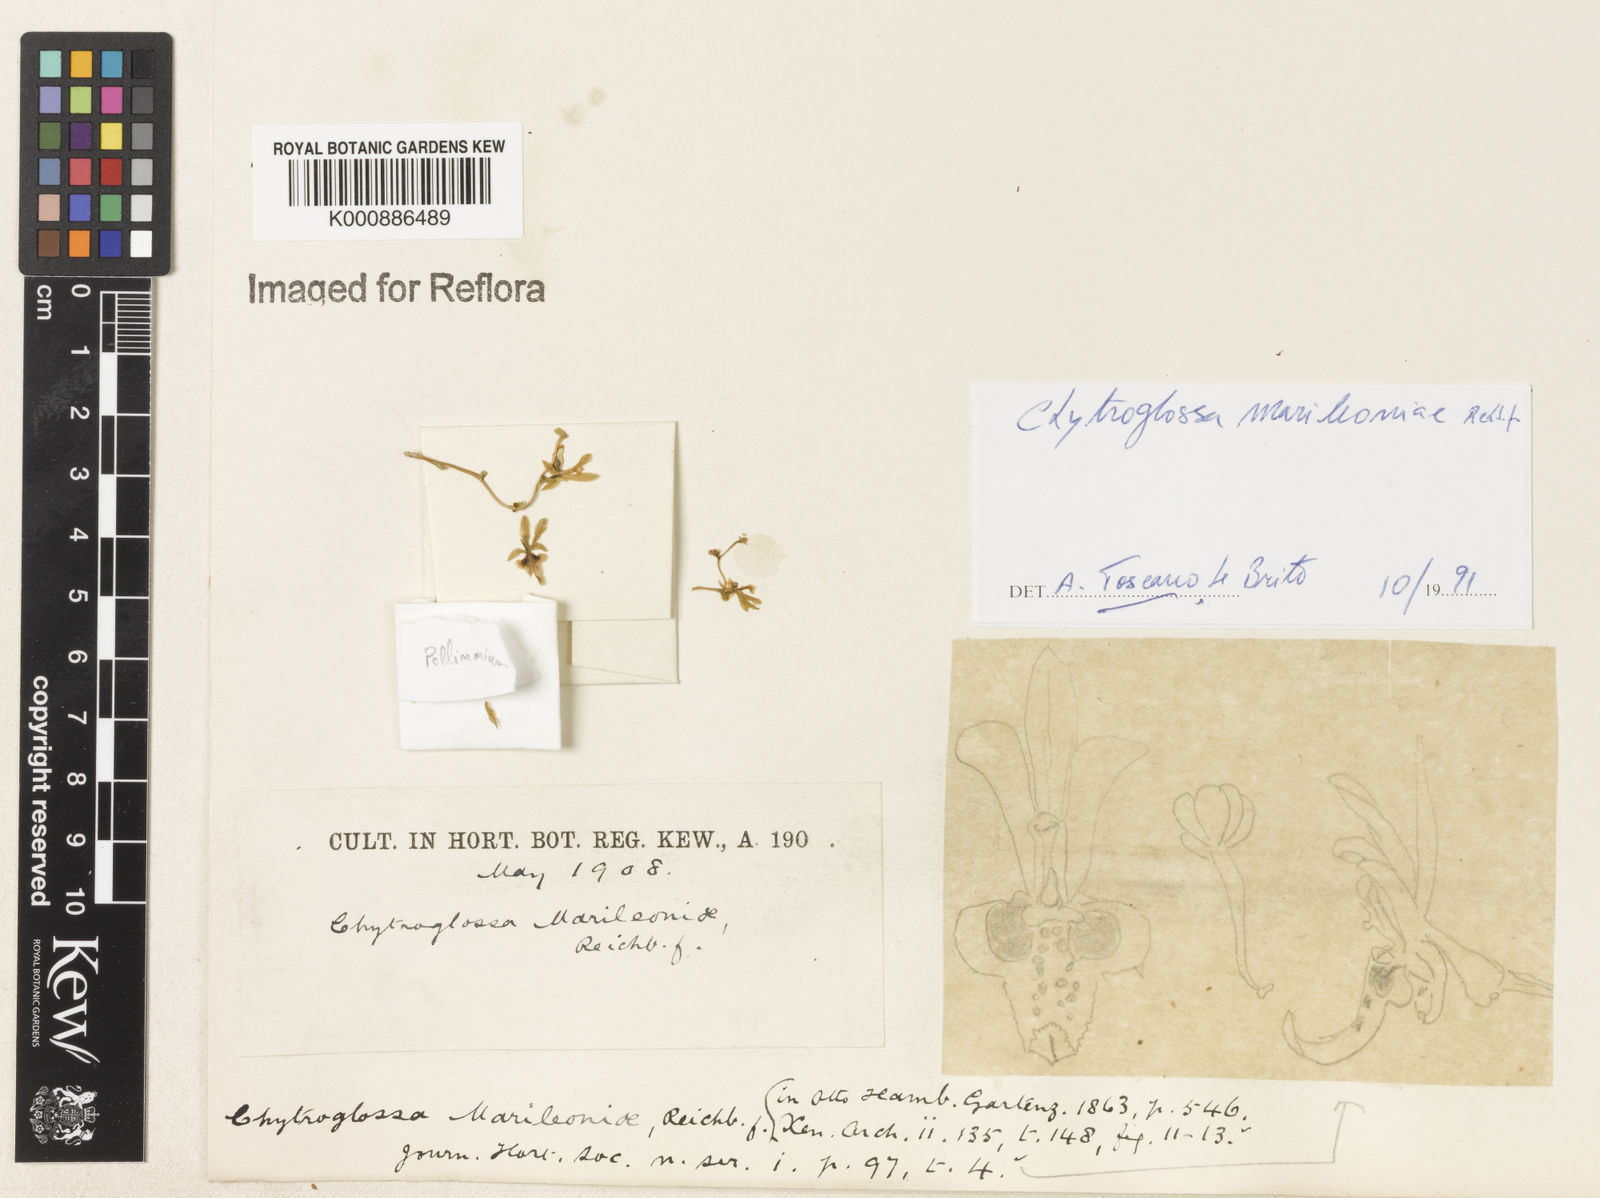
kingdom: Plantae
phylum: Tracheophyta
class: Liliopsida
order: Asparagales
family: Orchidaceae
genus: Chytroglossa
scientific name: Chytroglossa marileoniae
